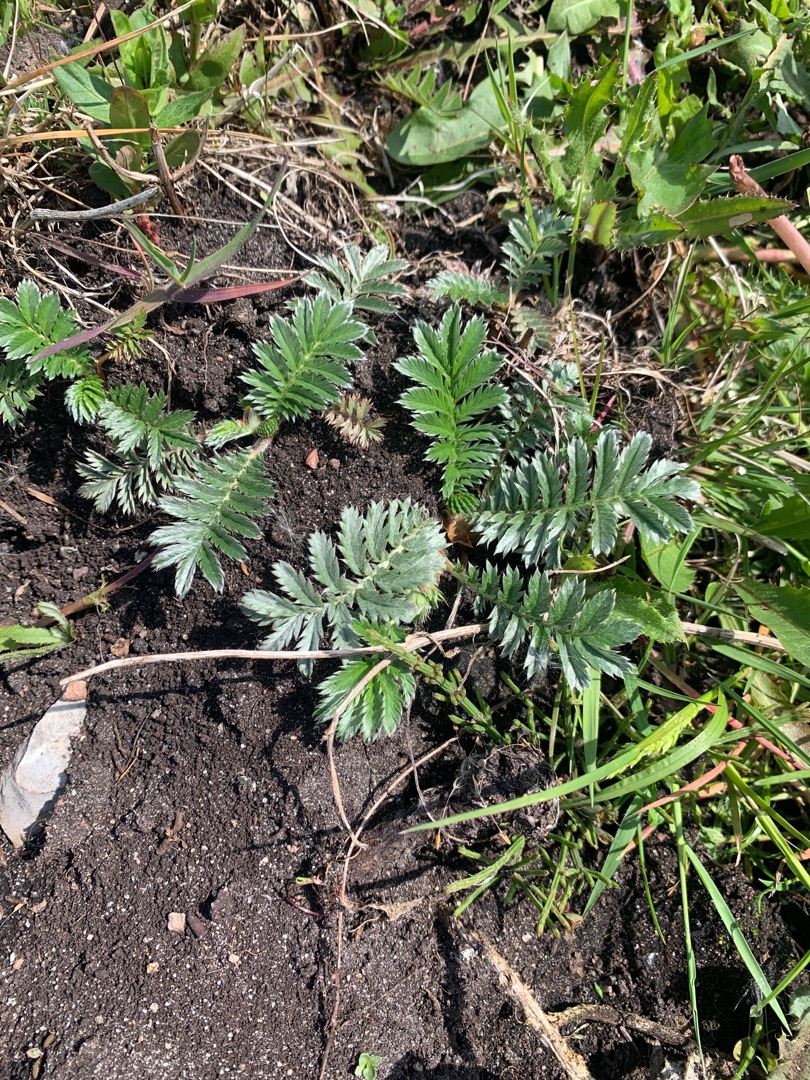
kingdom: Plantae
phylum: Tracheophyta
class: Magnoliopsida
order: Rosales
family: Rosaceae
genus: Argentina
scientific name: Argentina anserina
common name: Gåsepotentil
